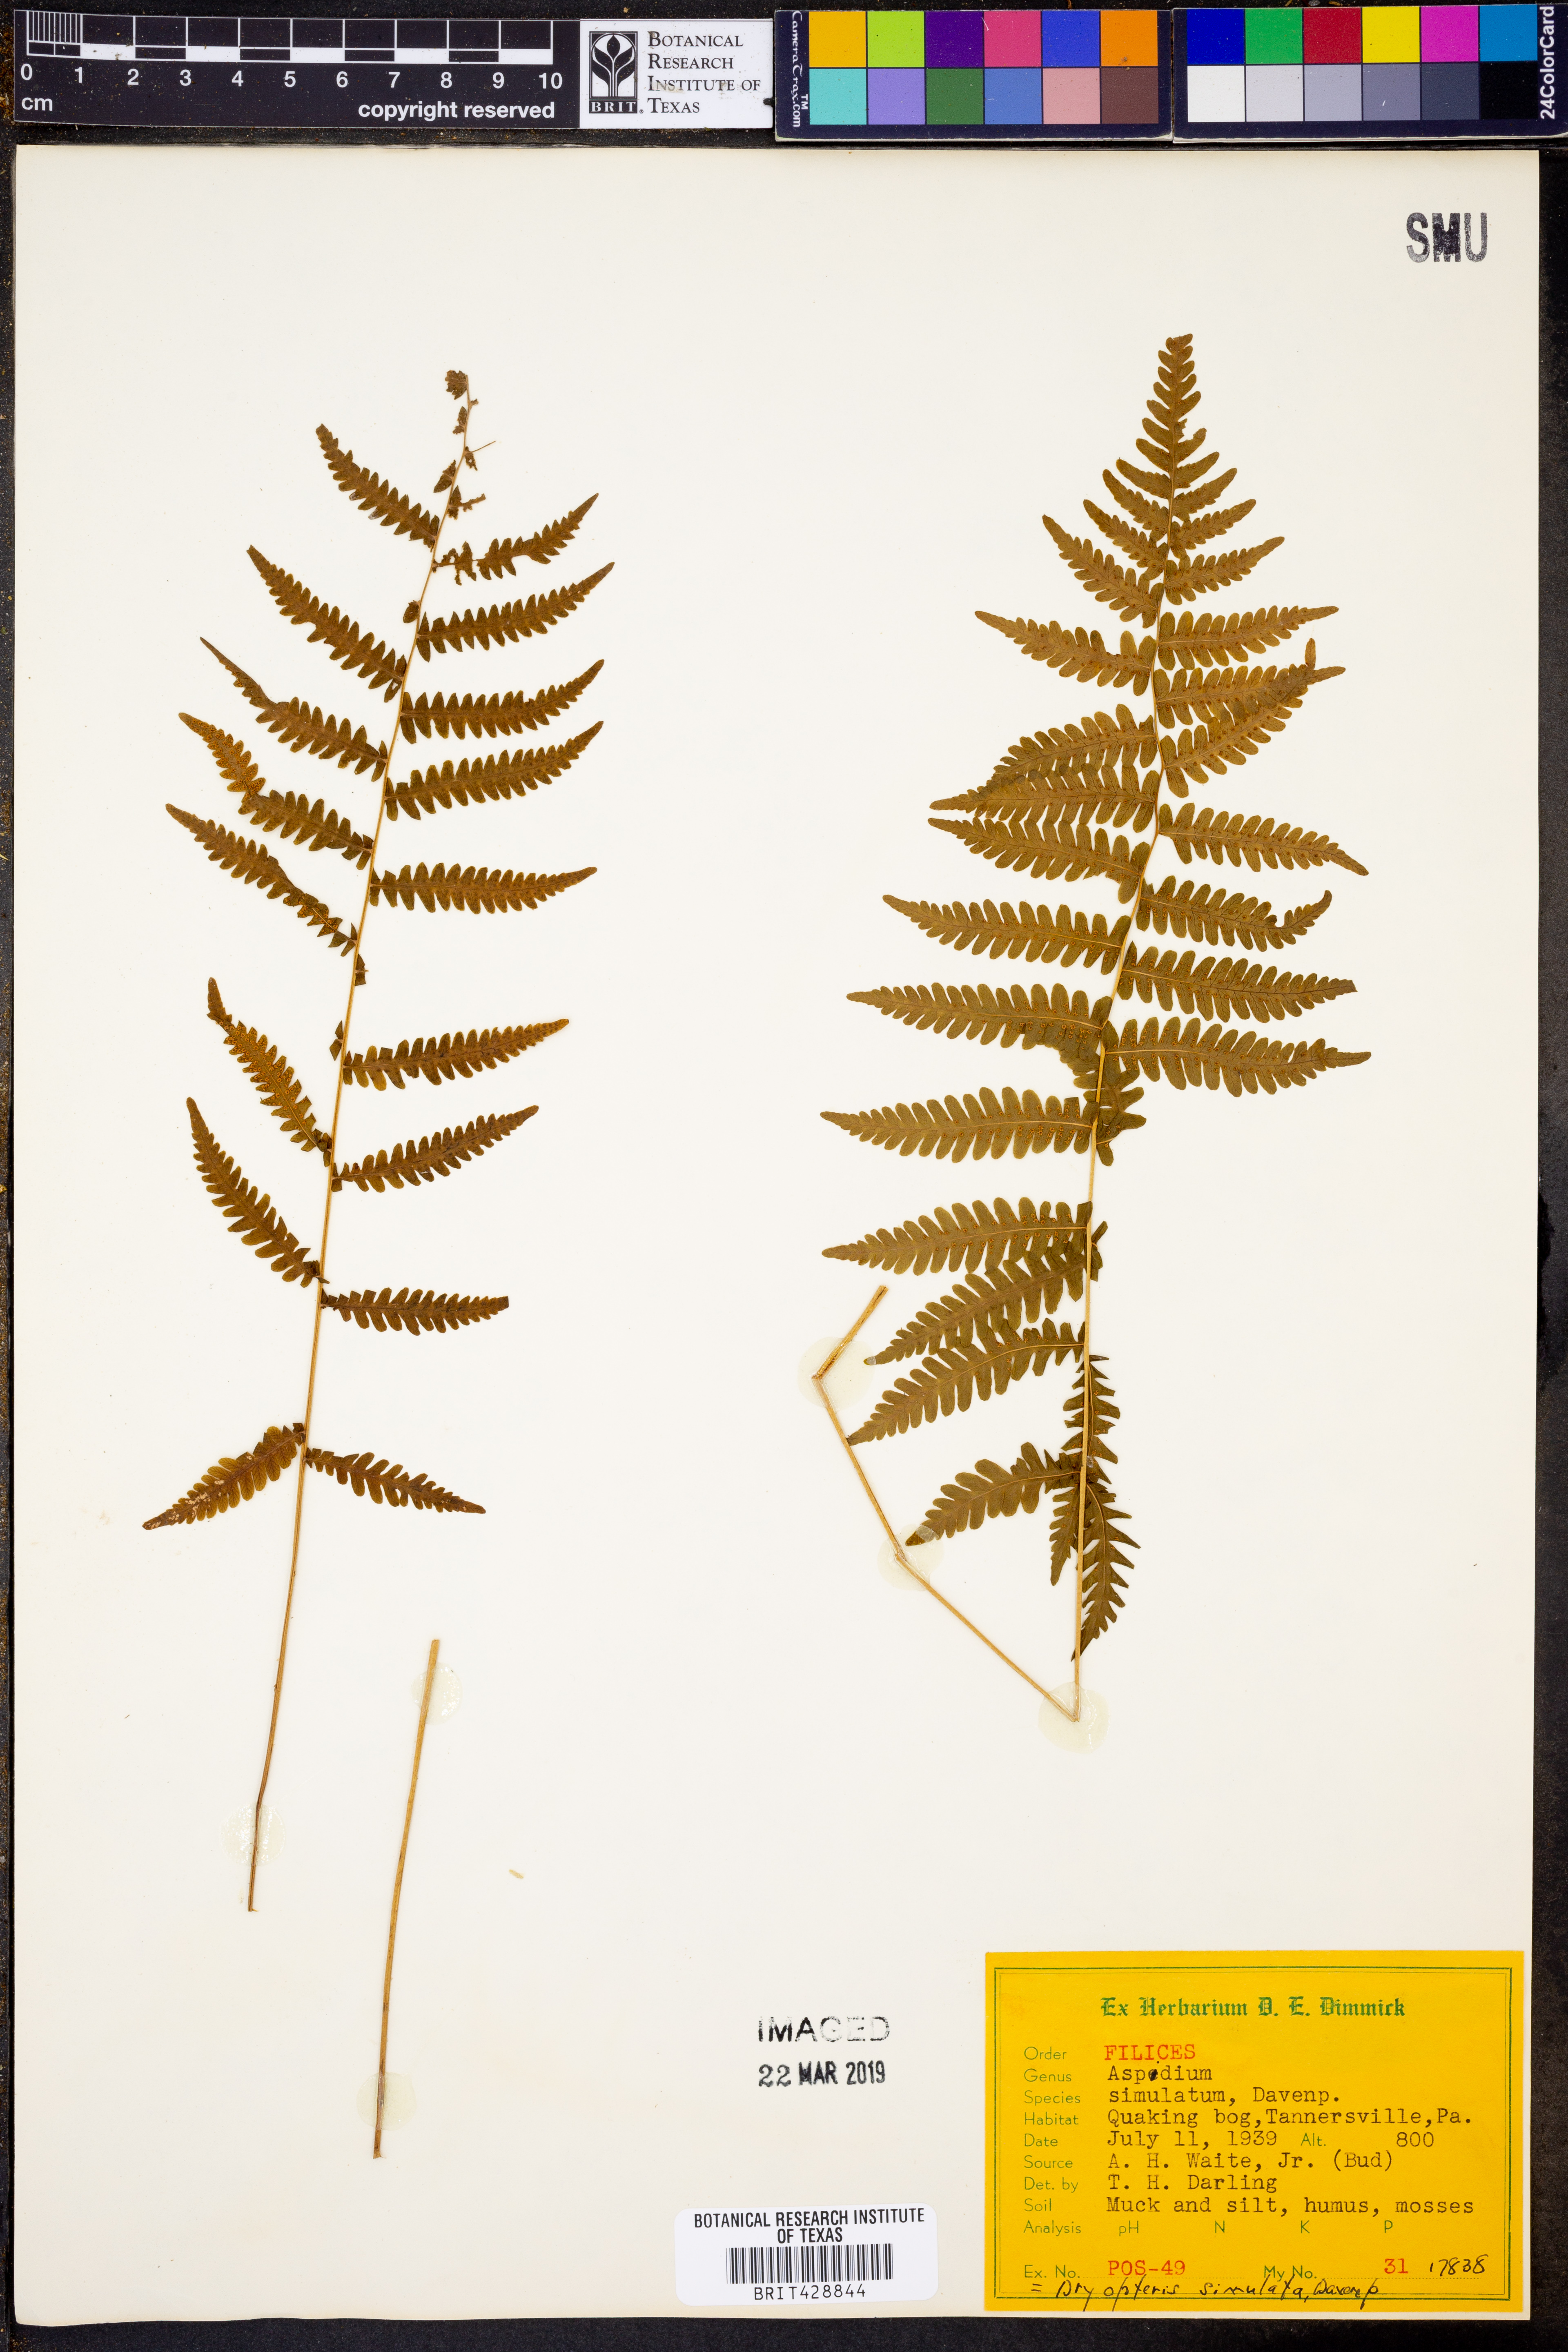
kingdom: Plantae
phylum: Tracheophyta
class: Polypodiopsida
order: Polypodiales
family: Thelypteridaceae
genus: Coryphopteris
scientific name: Coryphopteris simulata
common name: Bog fern
